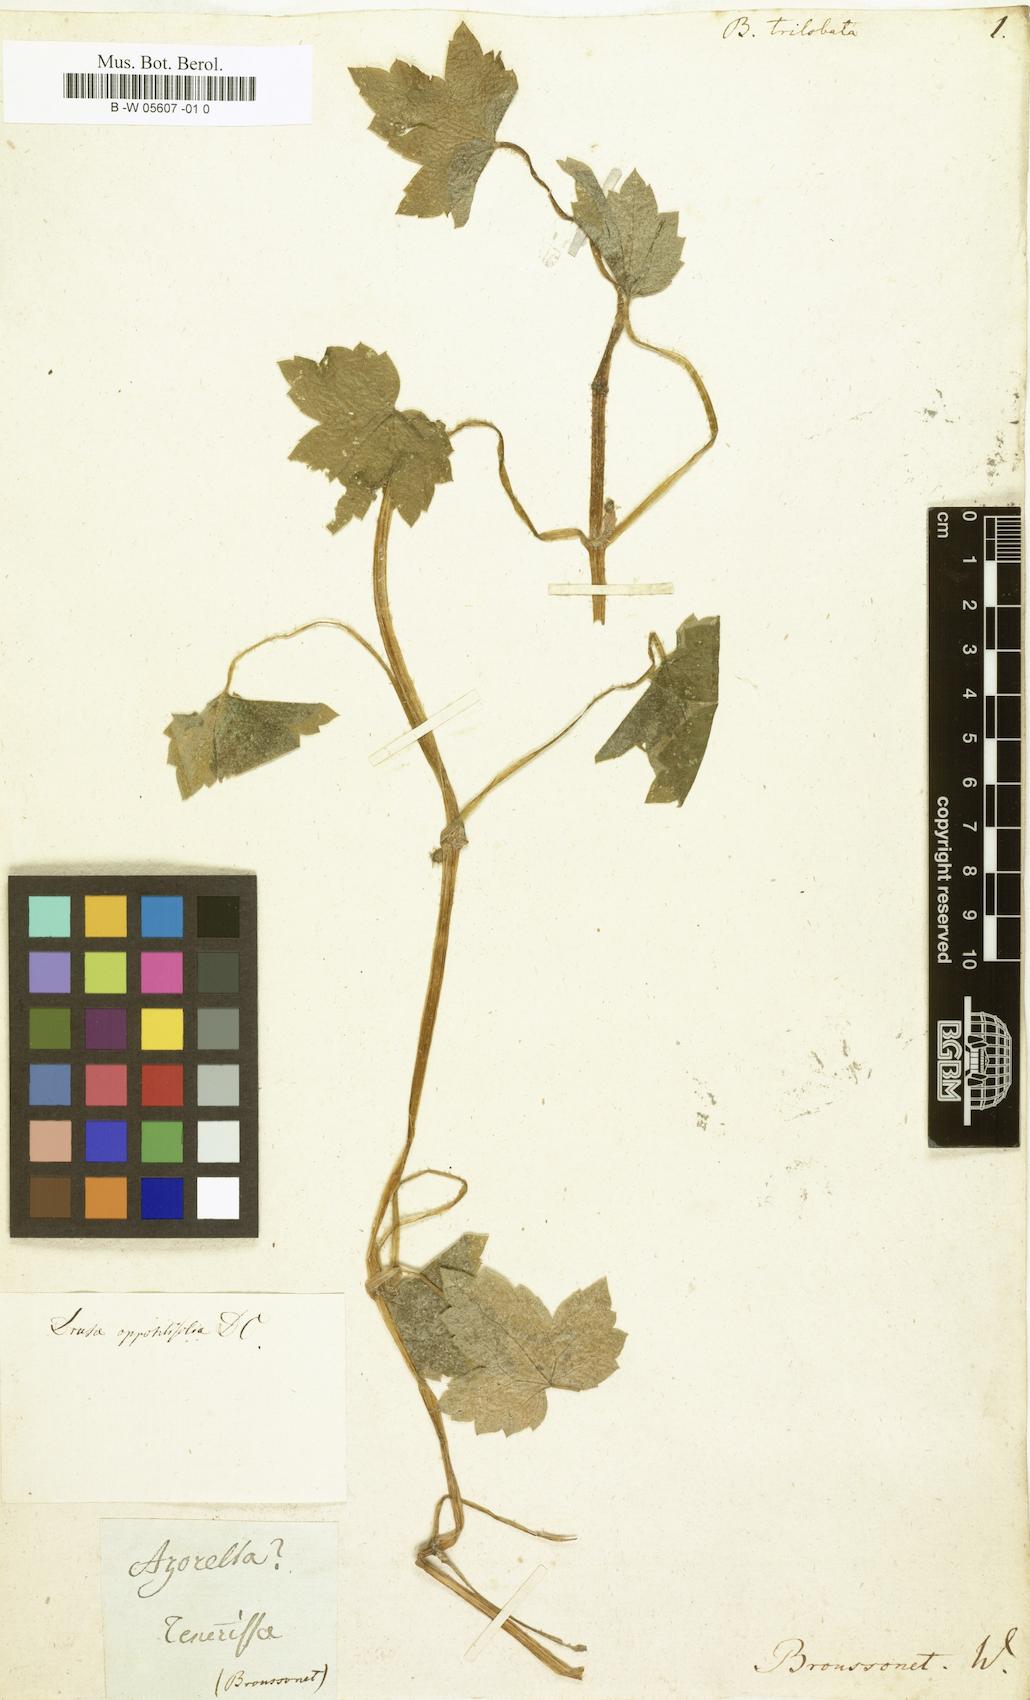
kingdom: Plantae
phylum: Tracheophyta
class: Magnoliopsida
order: Apiales
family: Apiaceae
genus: Bowlesia
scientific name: Bowlesia
